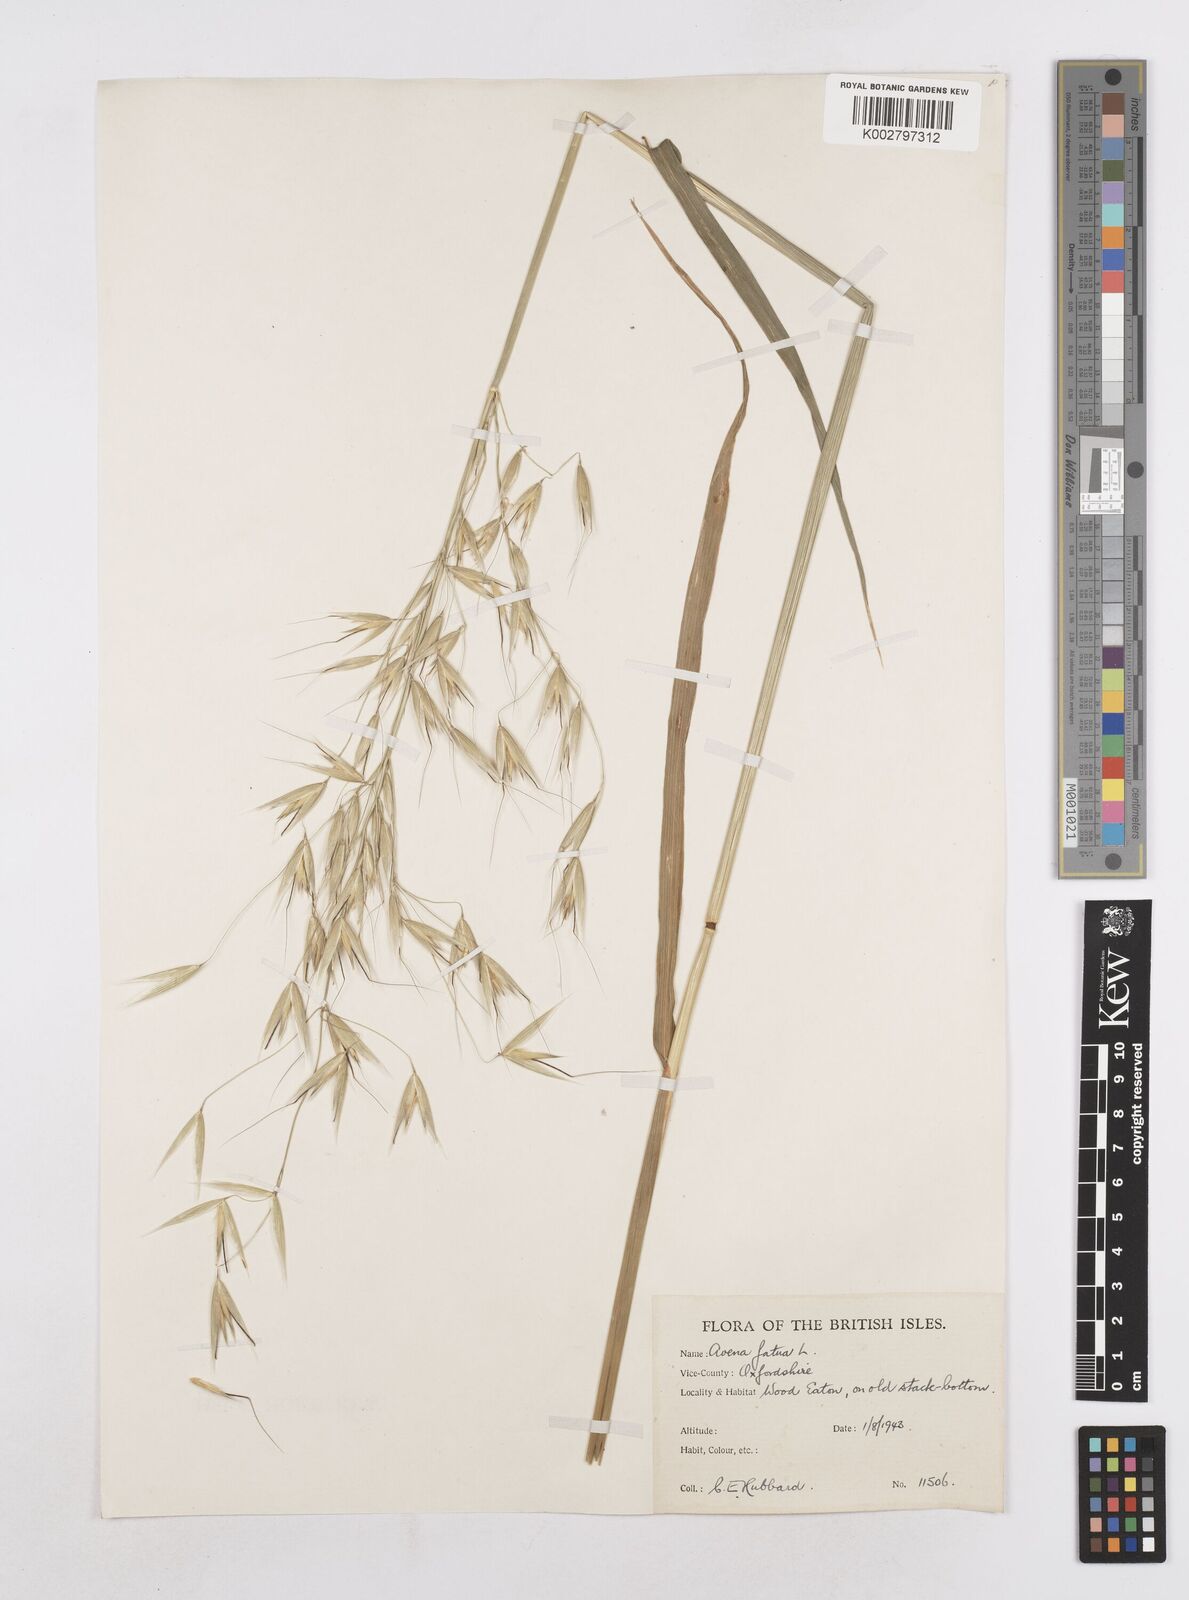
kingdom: Plantae
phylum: Tracheophyta
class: Liliopsida
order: Poales
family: Poaceae
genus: Avena
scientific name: Avena fatua
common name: Wild oat
